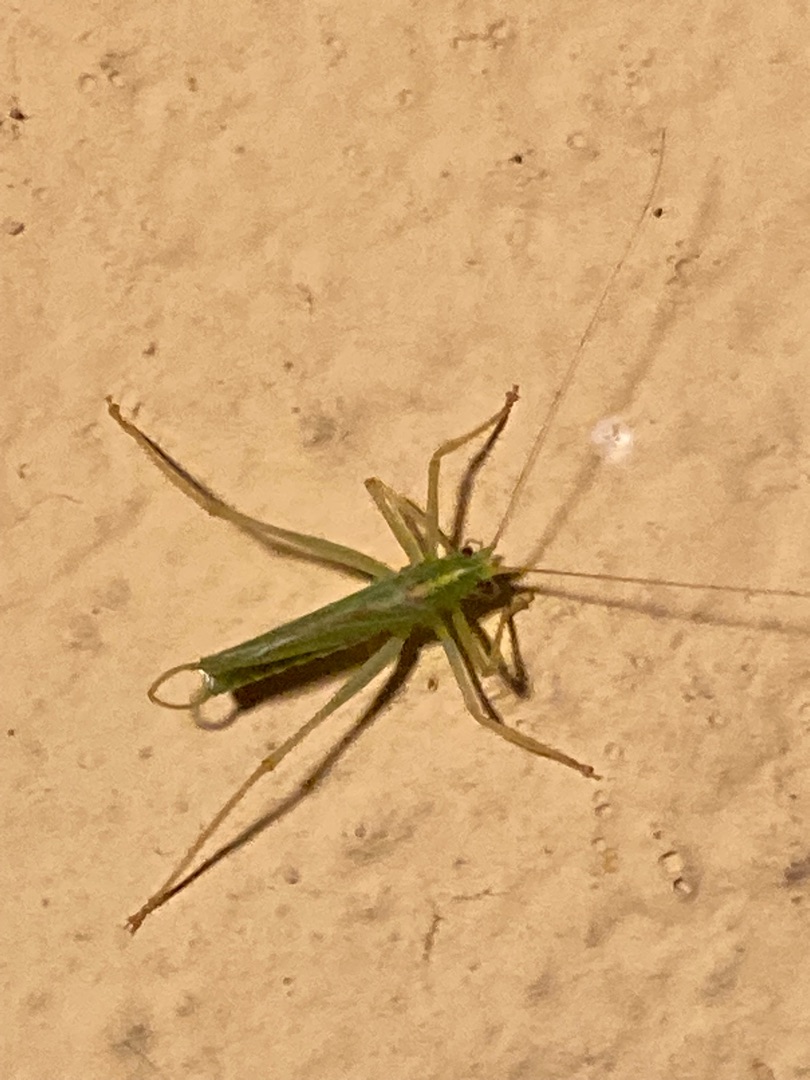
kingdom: Animalia
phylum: Arthropoda
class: Insecta
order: Orthoptera
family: Tettigoniidae
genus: Meconema
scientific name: Meconema thalassinum
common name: Egegræshoppe
